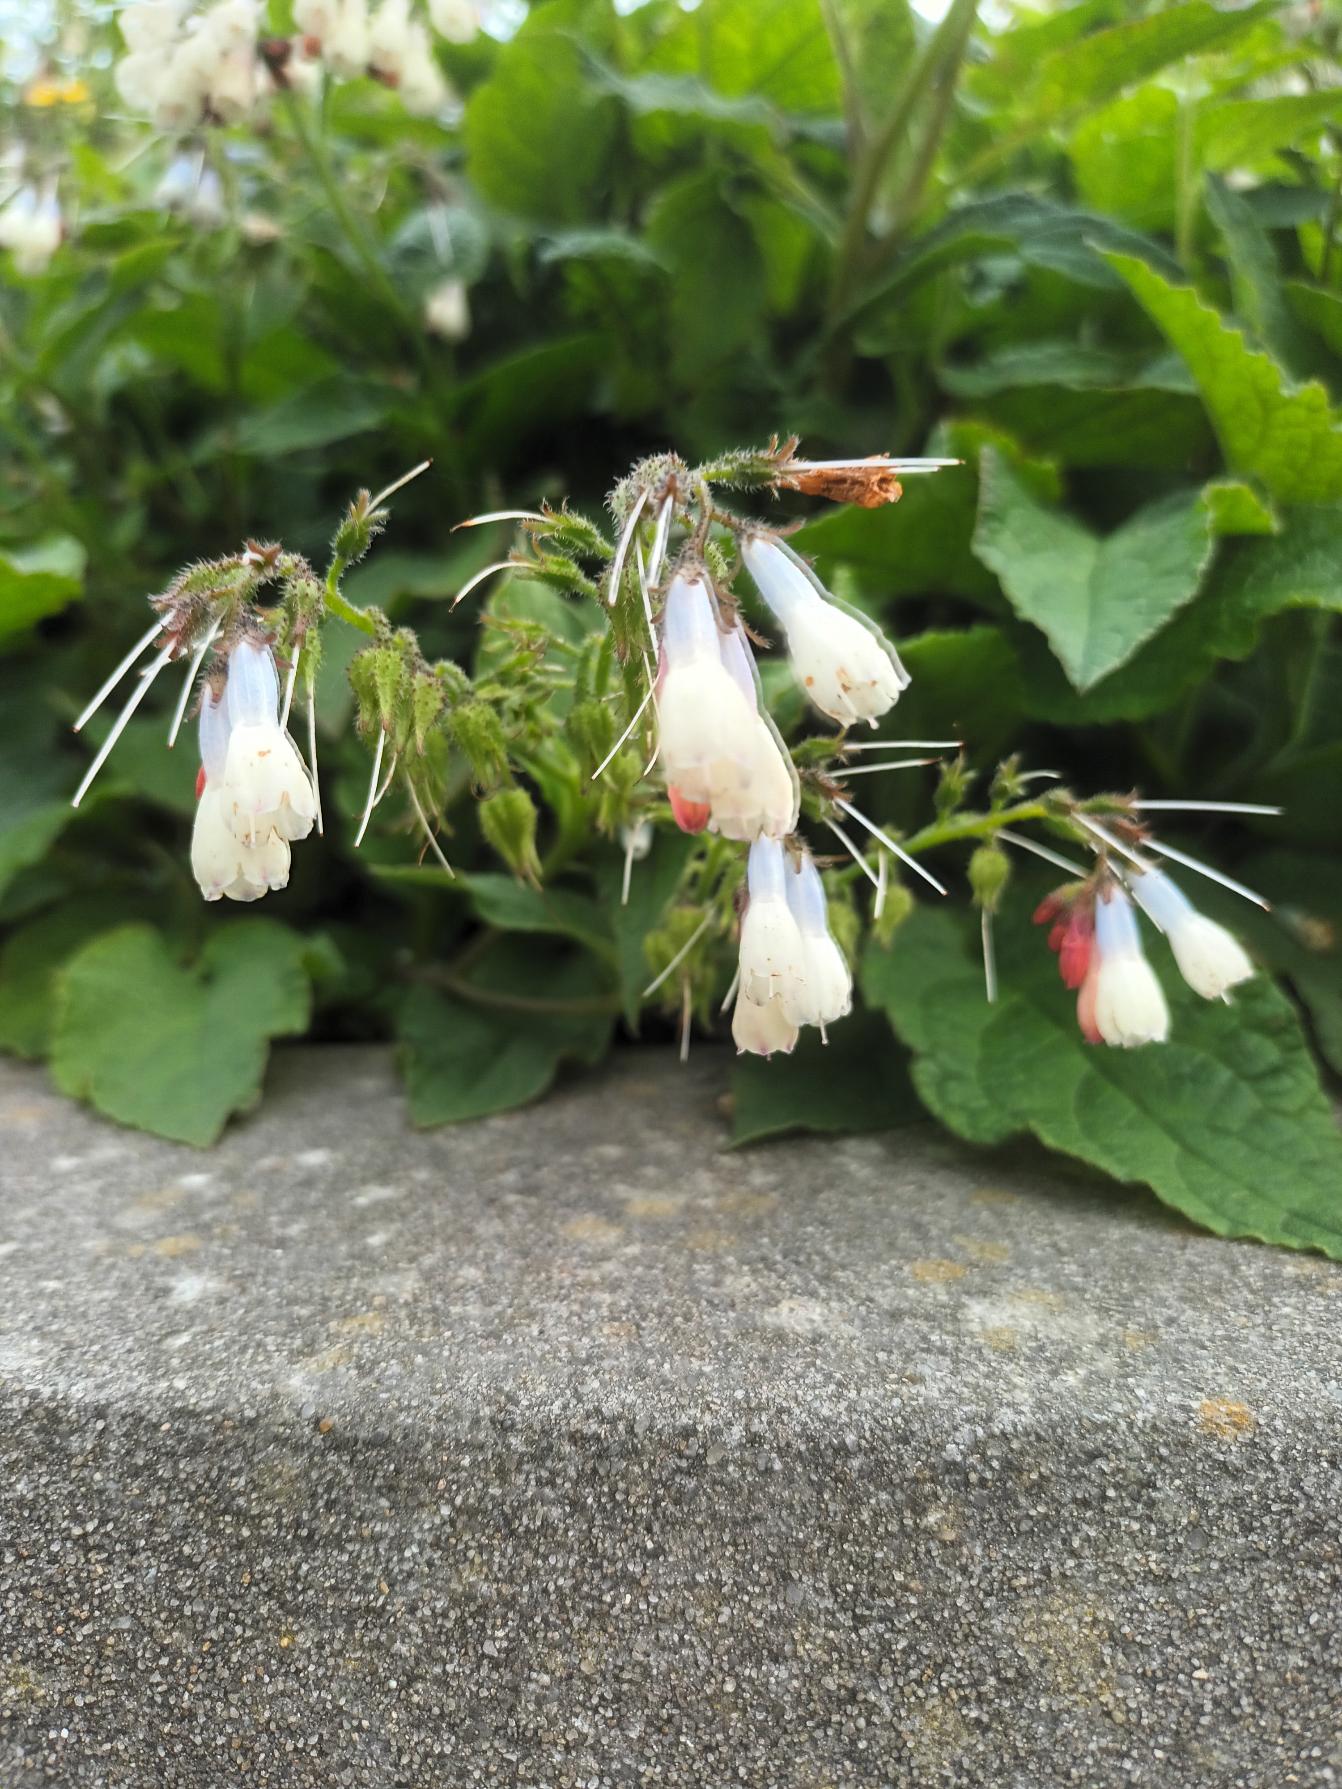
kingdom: Plantae
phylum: Tracheophyta
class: Magnoliopsida
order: Boraginales
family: Boraginaceae
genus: Symphytum
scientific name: Symphytum hidcotense
